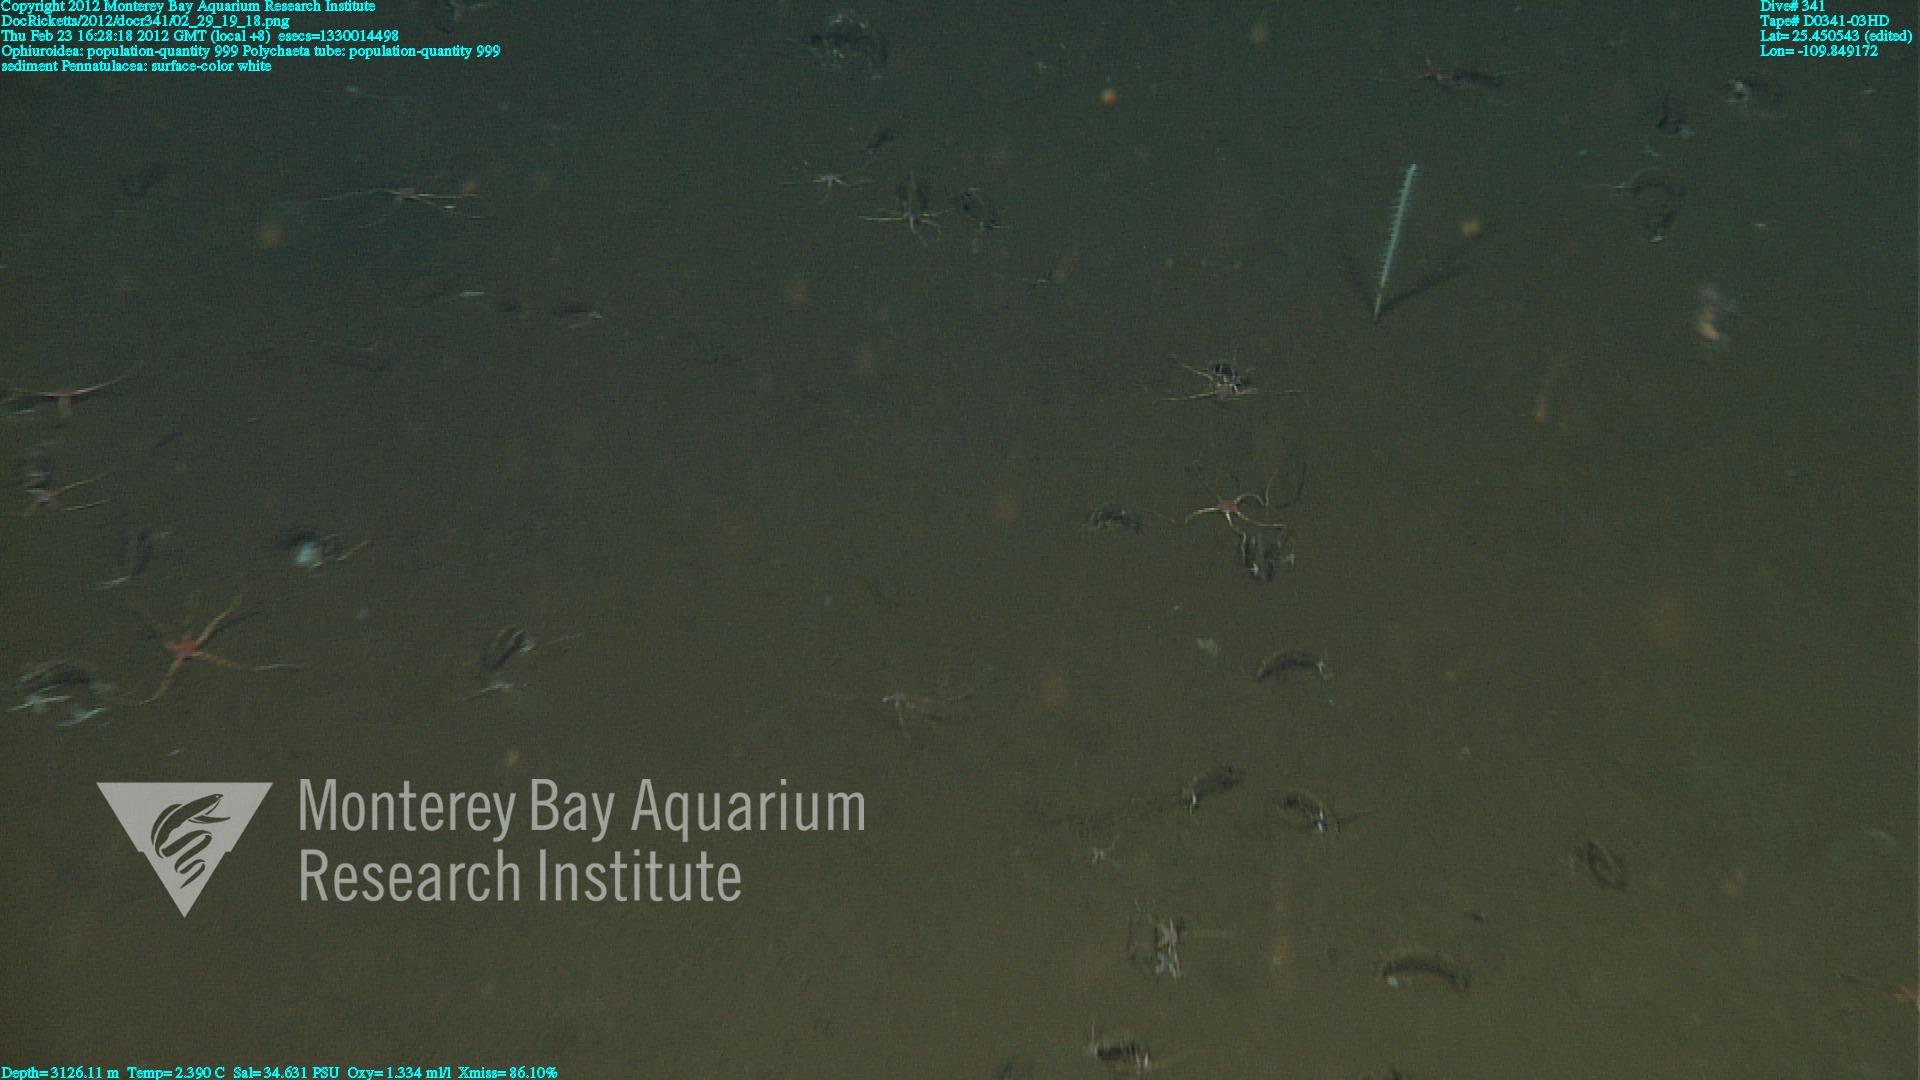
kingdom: Animalia
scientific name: Animalia
